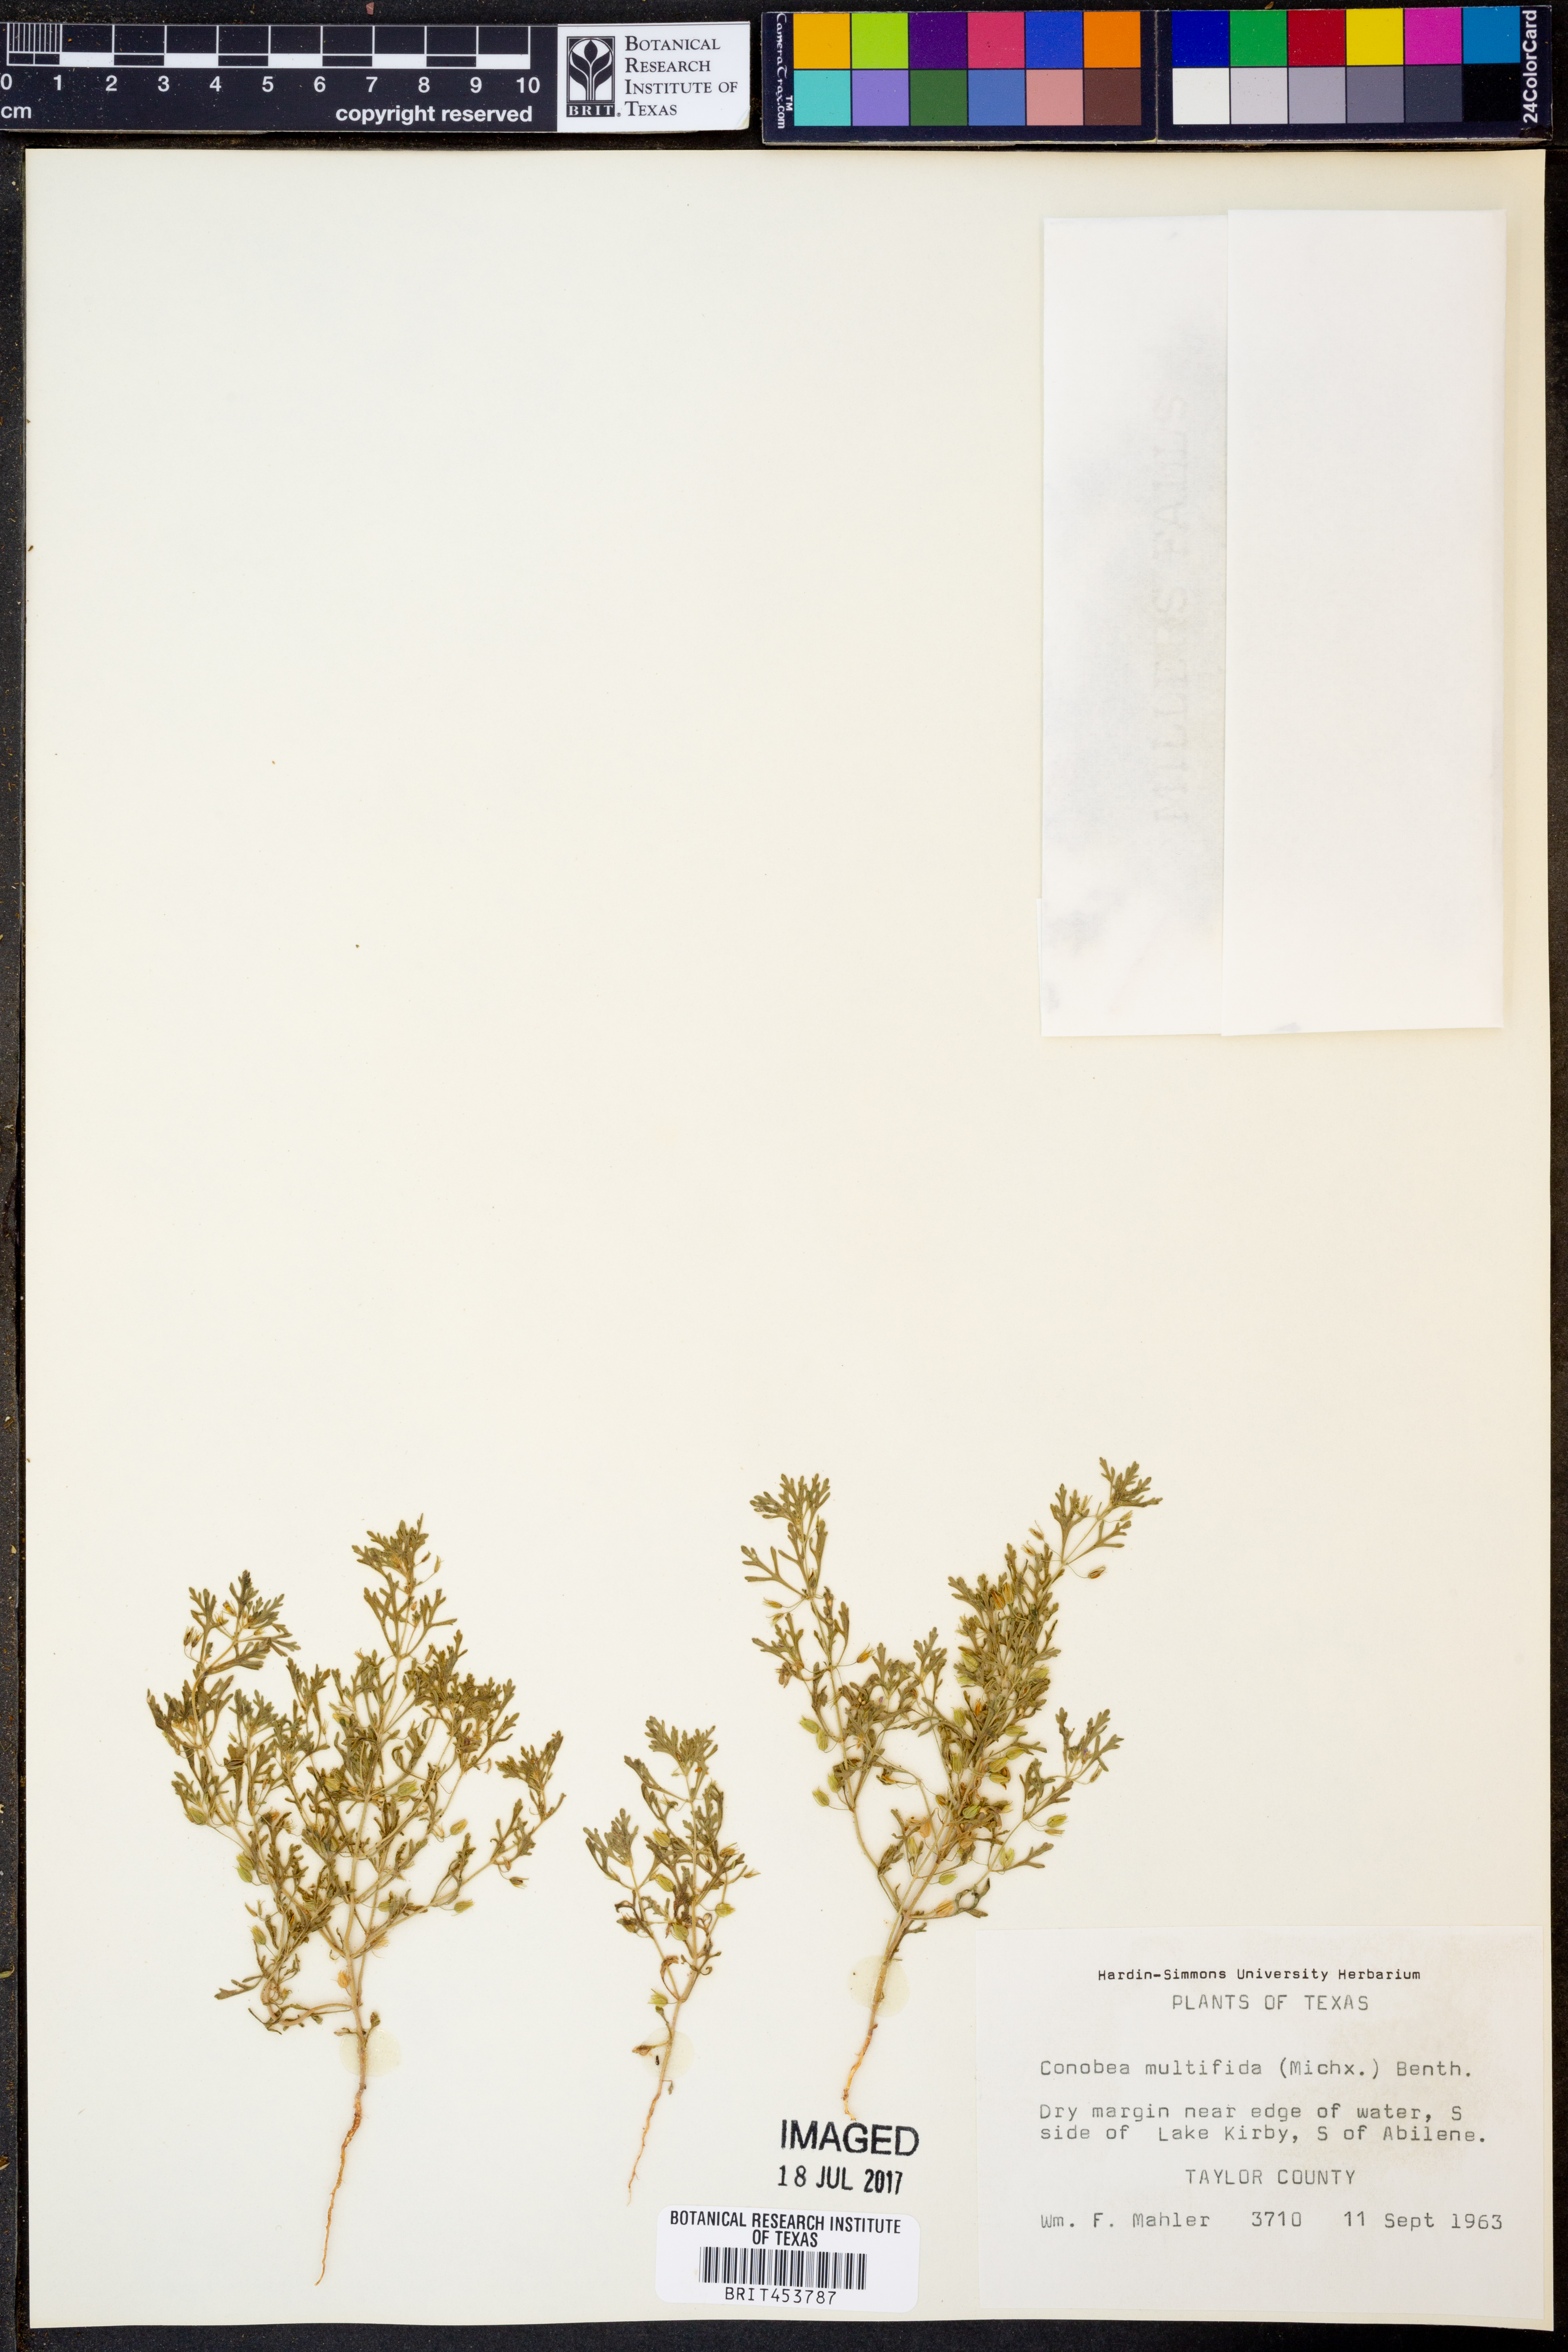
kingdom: Plantae
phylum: Tracheophyta
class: Magnoliopsida
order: Lamiales
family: Plantaginaceae
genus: Leucospora
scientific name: Leucospora multifida
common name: Narrow-leaf paleseed
